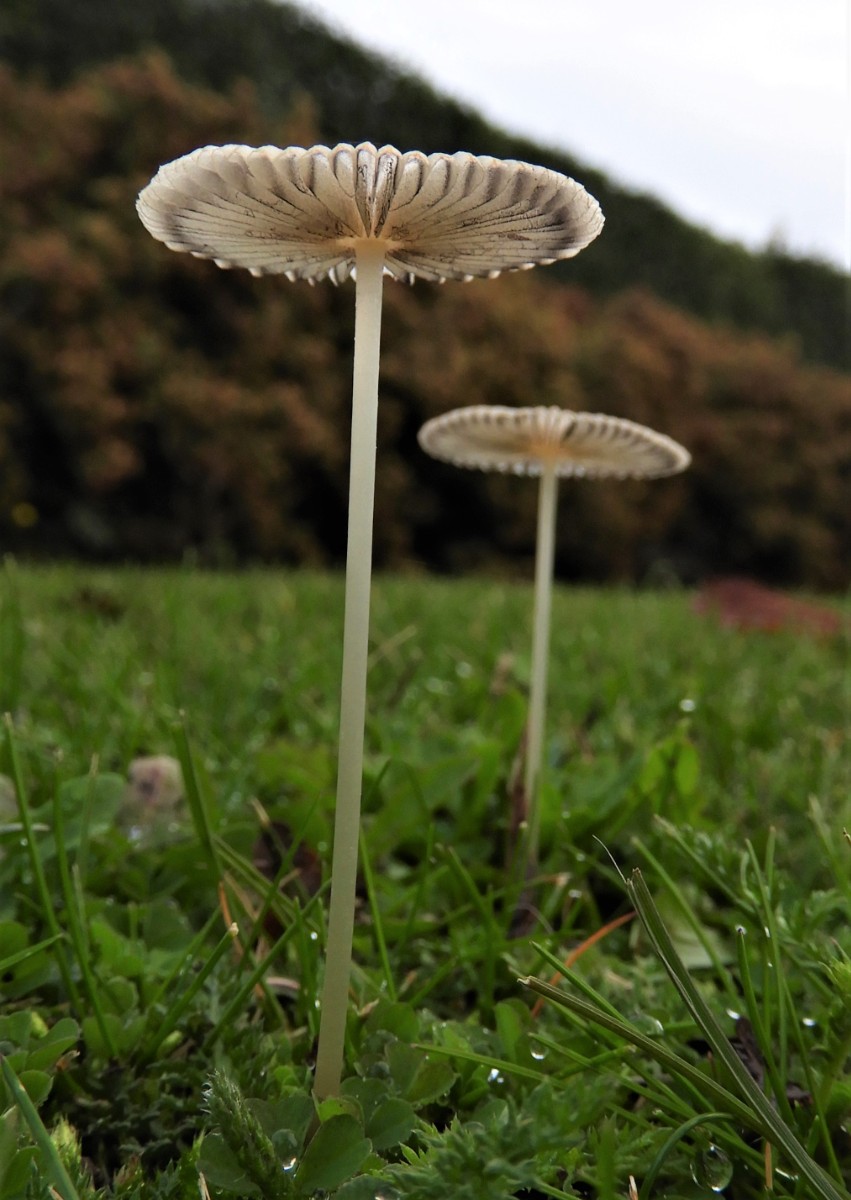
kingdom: Fungi
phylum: Basidiomycota
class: Agaricomycetes
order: Agaricales
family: Psathyrellaceae
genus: Parasola
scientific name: Parasola
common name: hjulhat
